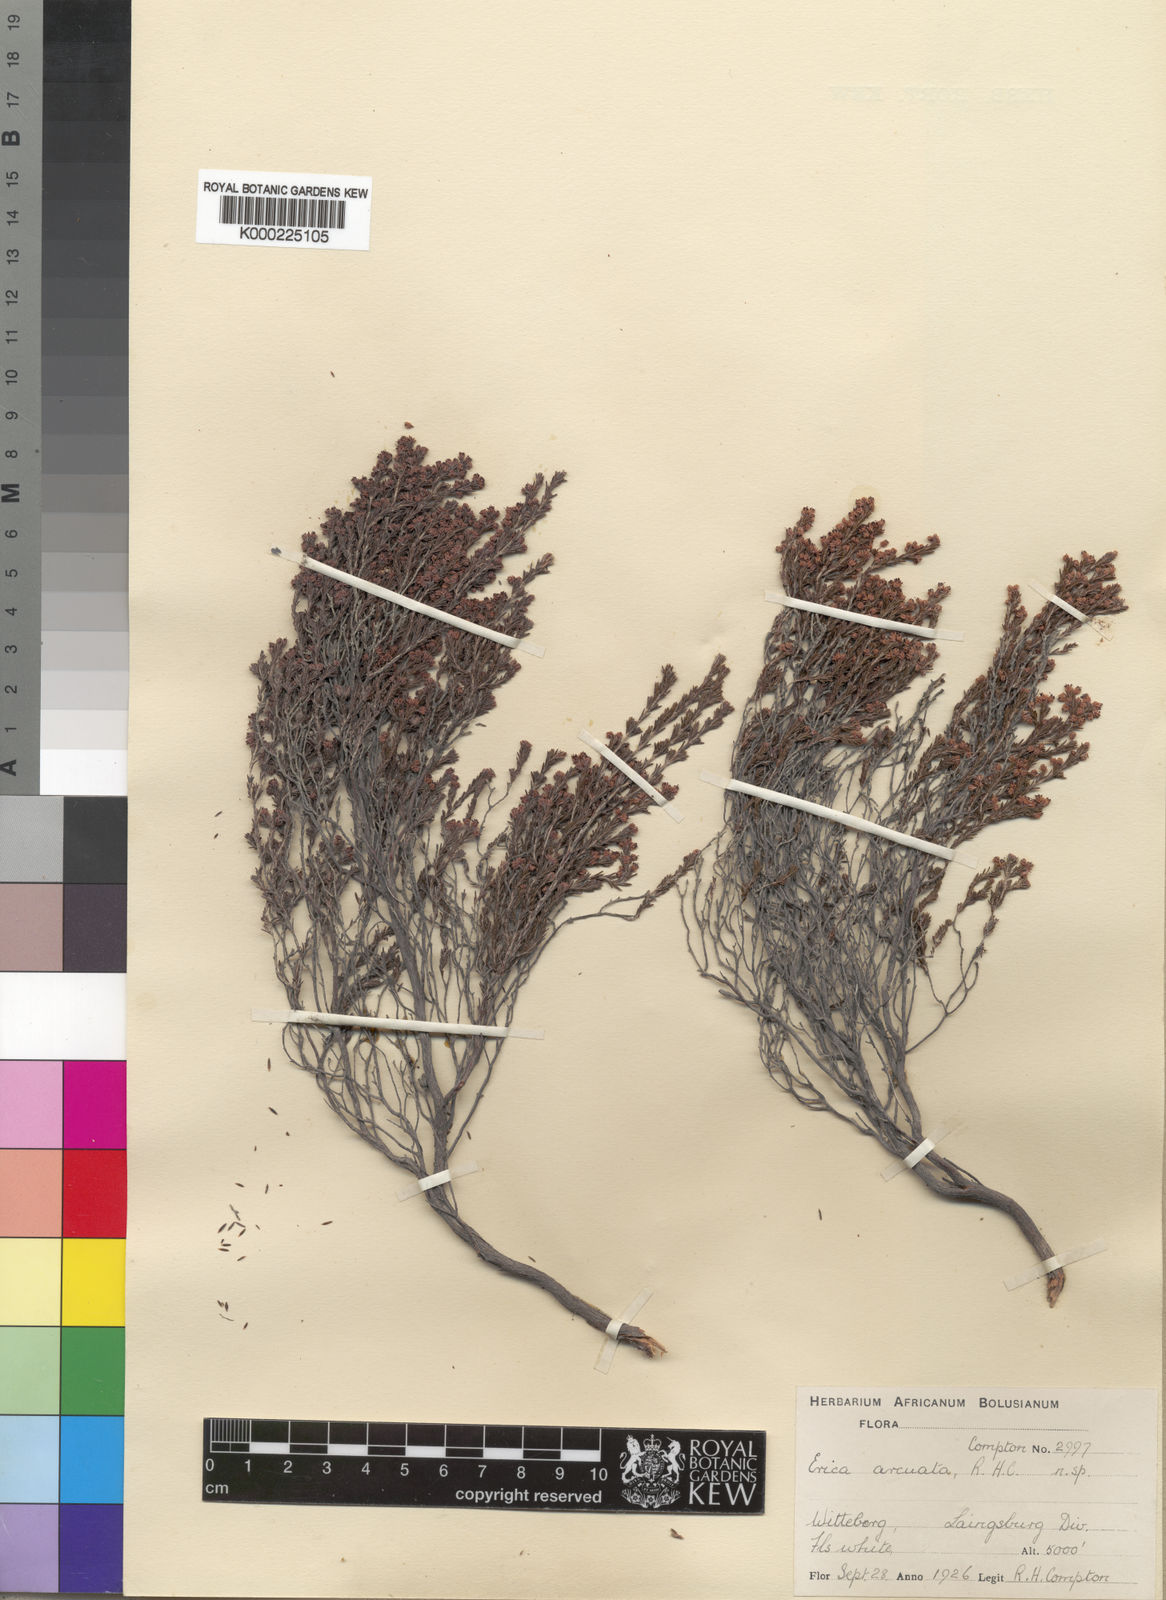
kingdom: Plantae
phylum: Tracheophyta
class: Magnoliopsida
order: Ericales
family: Ericaceae
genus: Erica
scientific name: Erica arcuata
